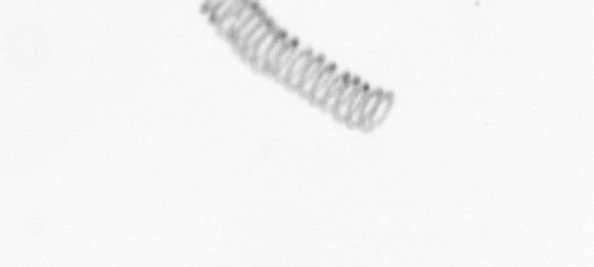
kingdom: Chromista
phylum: Ochrophyta
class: Bacillariophyceae
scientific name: Bacillariophyceae
